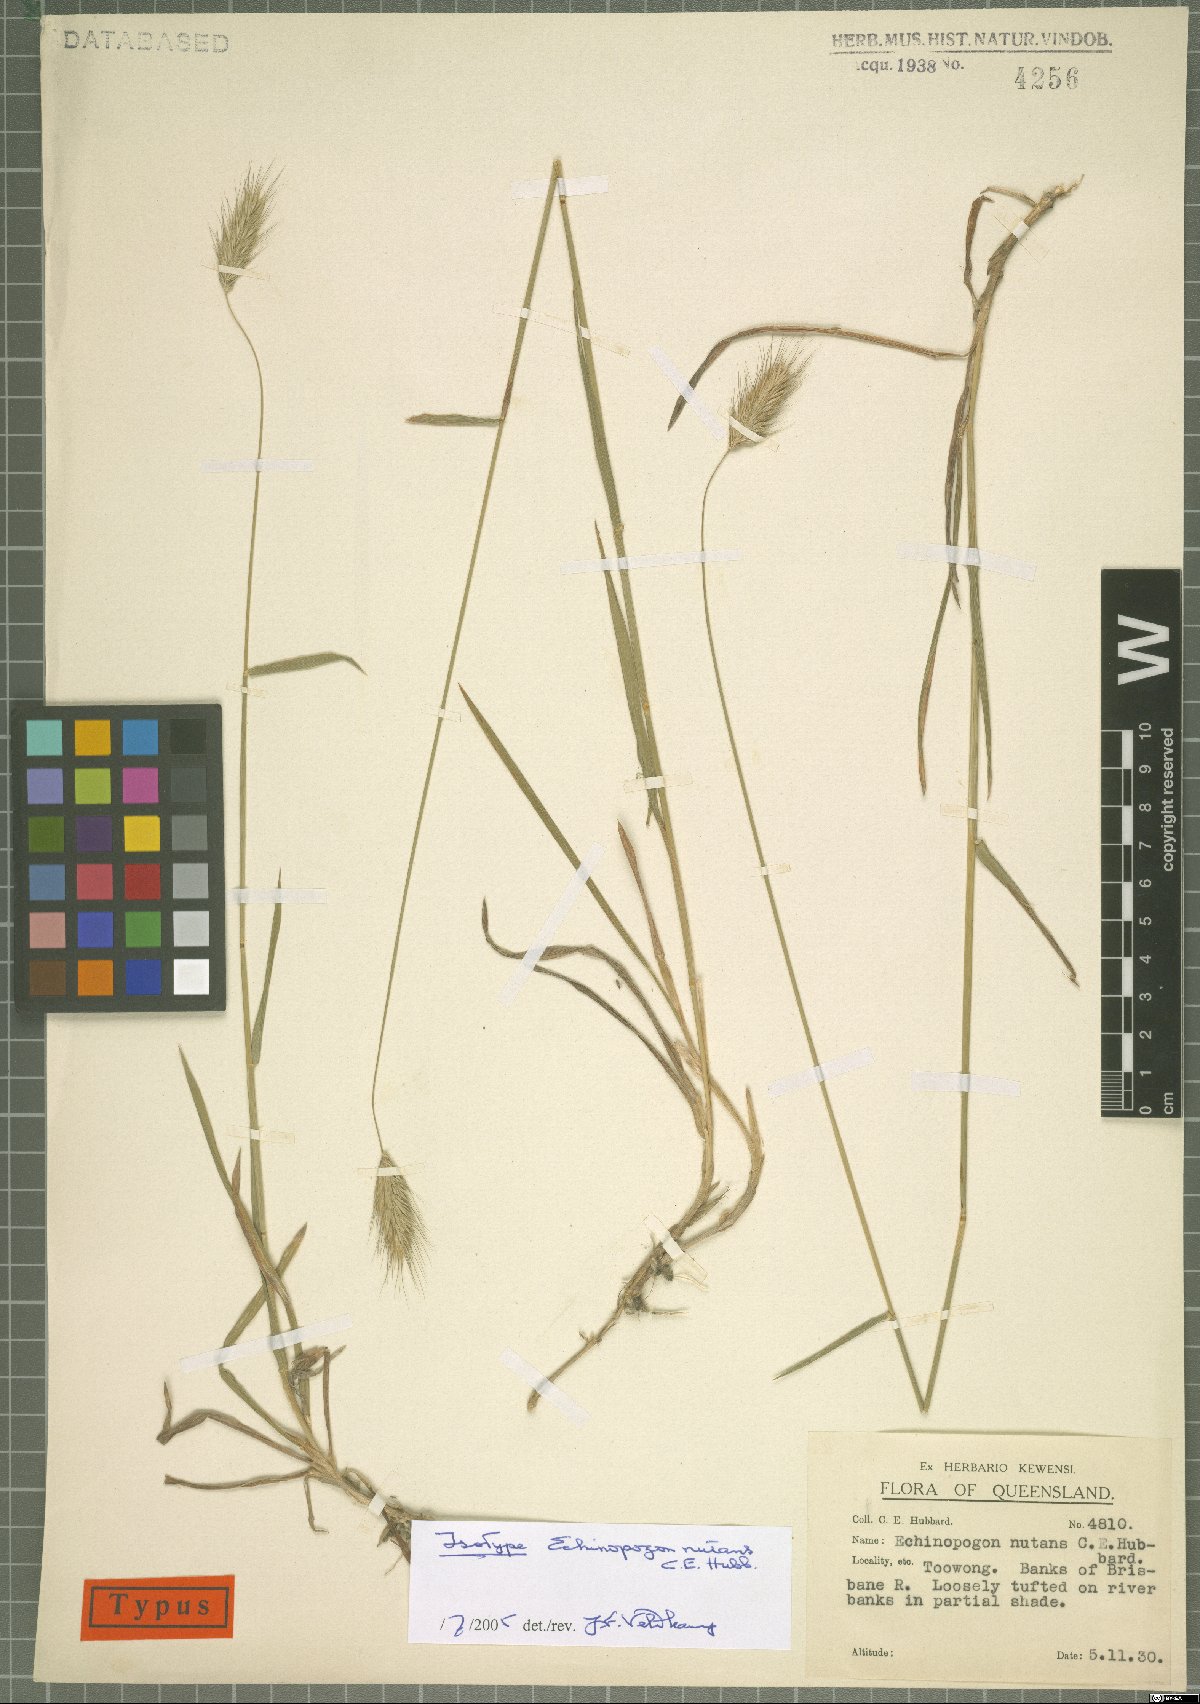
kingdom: Plantae
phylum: Tracheophyta
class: Liliopsida
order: Poales
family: Poaceae
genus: Echinopogon
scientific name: Echinopogon nutans
